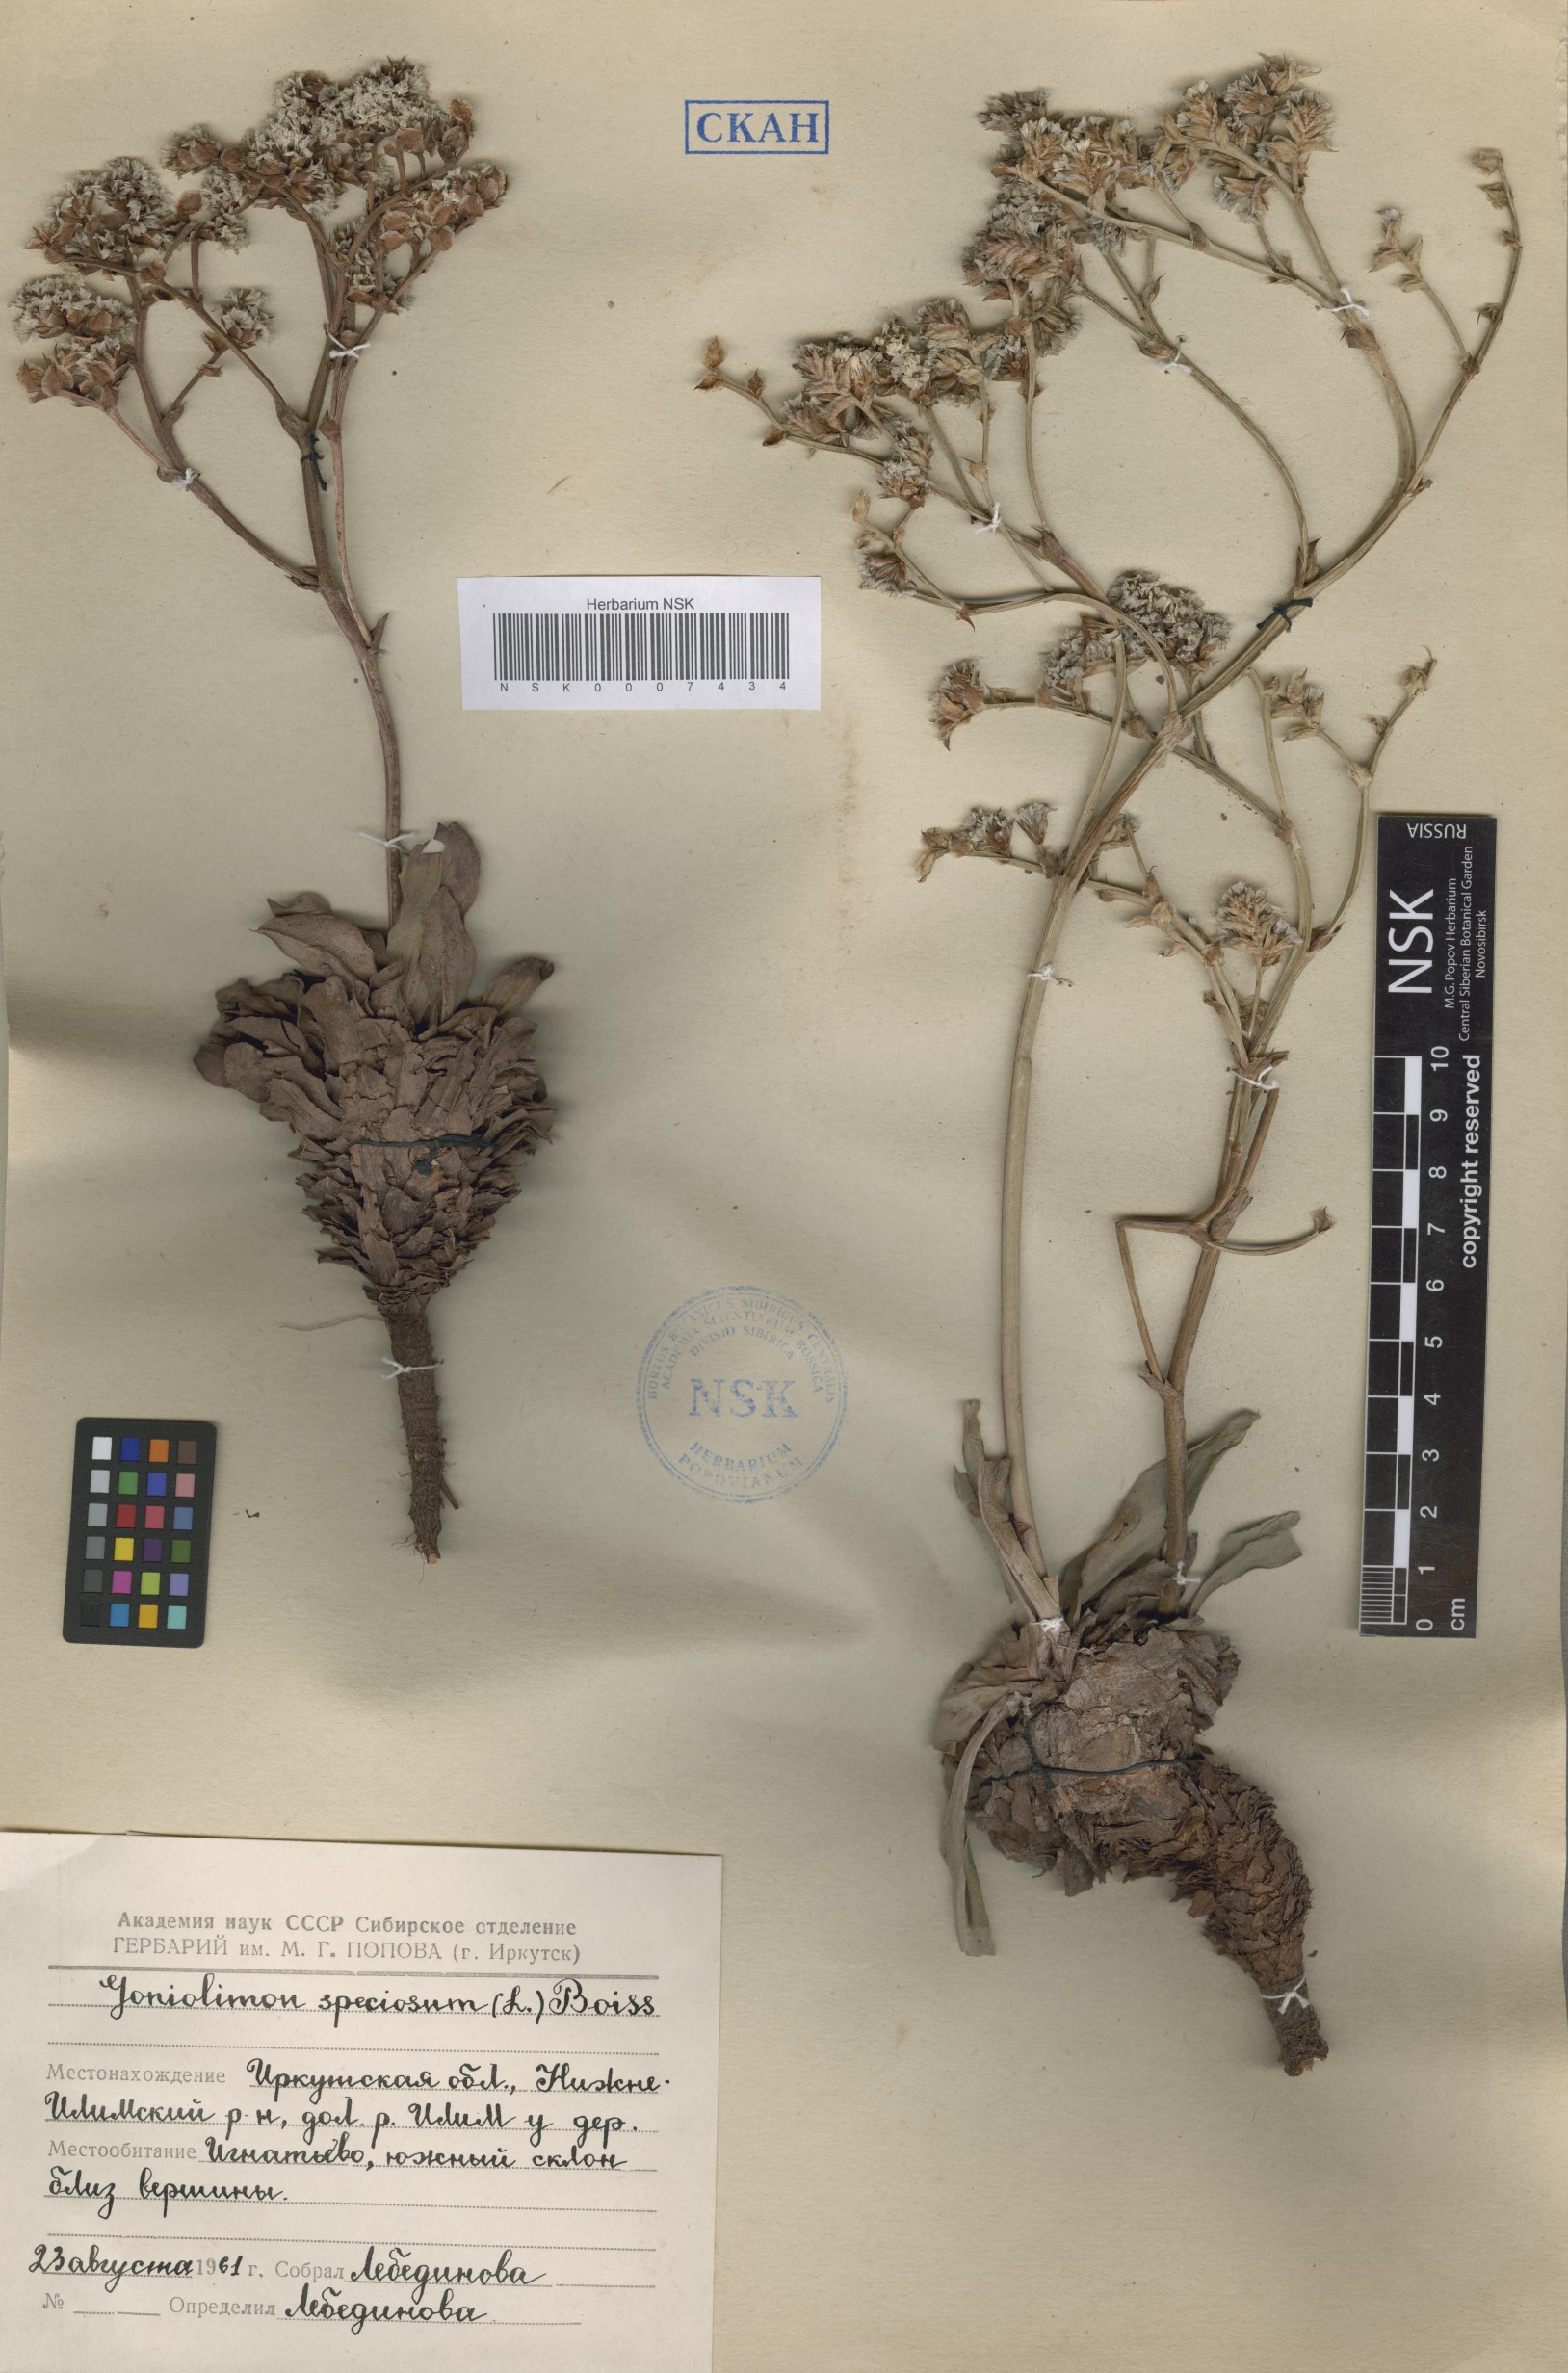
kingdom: Plantae
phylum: Tracheophyta
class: Magnoliopsida
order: Caryophyllales
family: Plumbaginaceae
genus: Goniolimon
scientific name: Goniolimon speciosum
